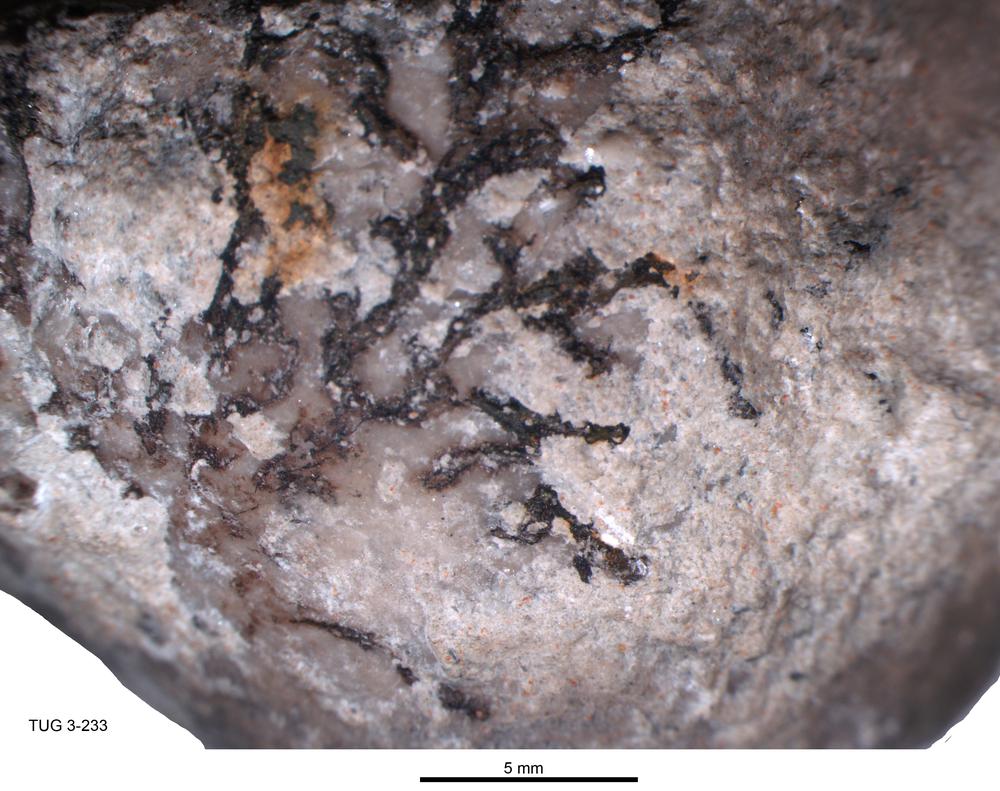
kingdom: Animalia
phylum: Hemichordata
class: Pterobranchia
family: Acanthograptidae
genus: Thallograptus
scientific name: Thallograptus
